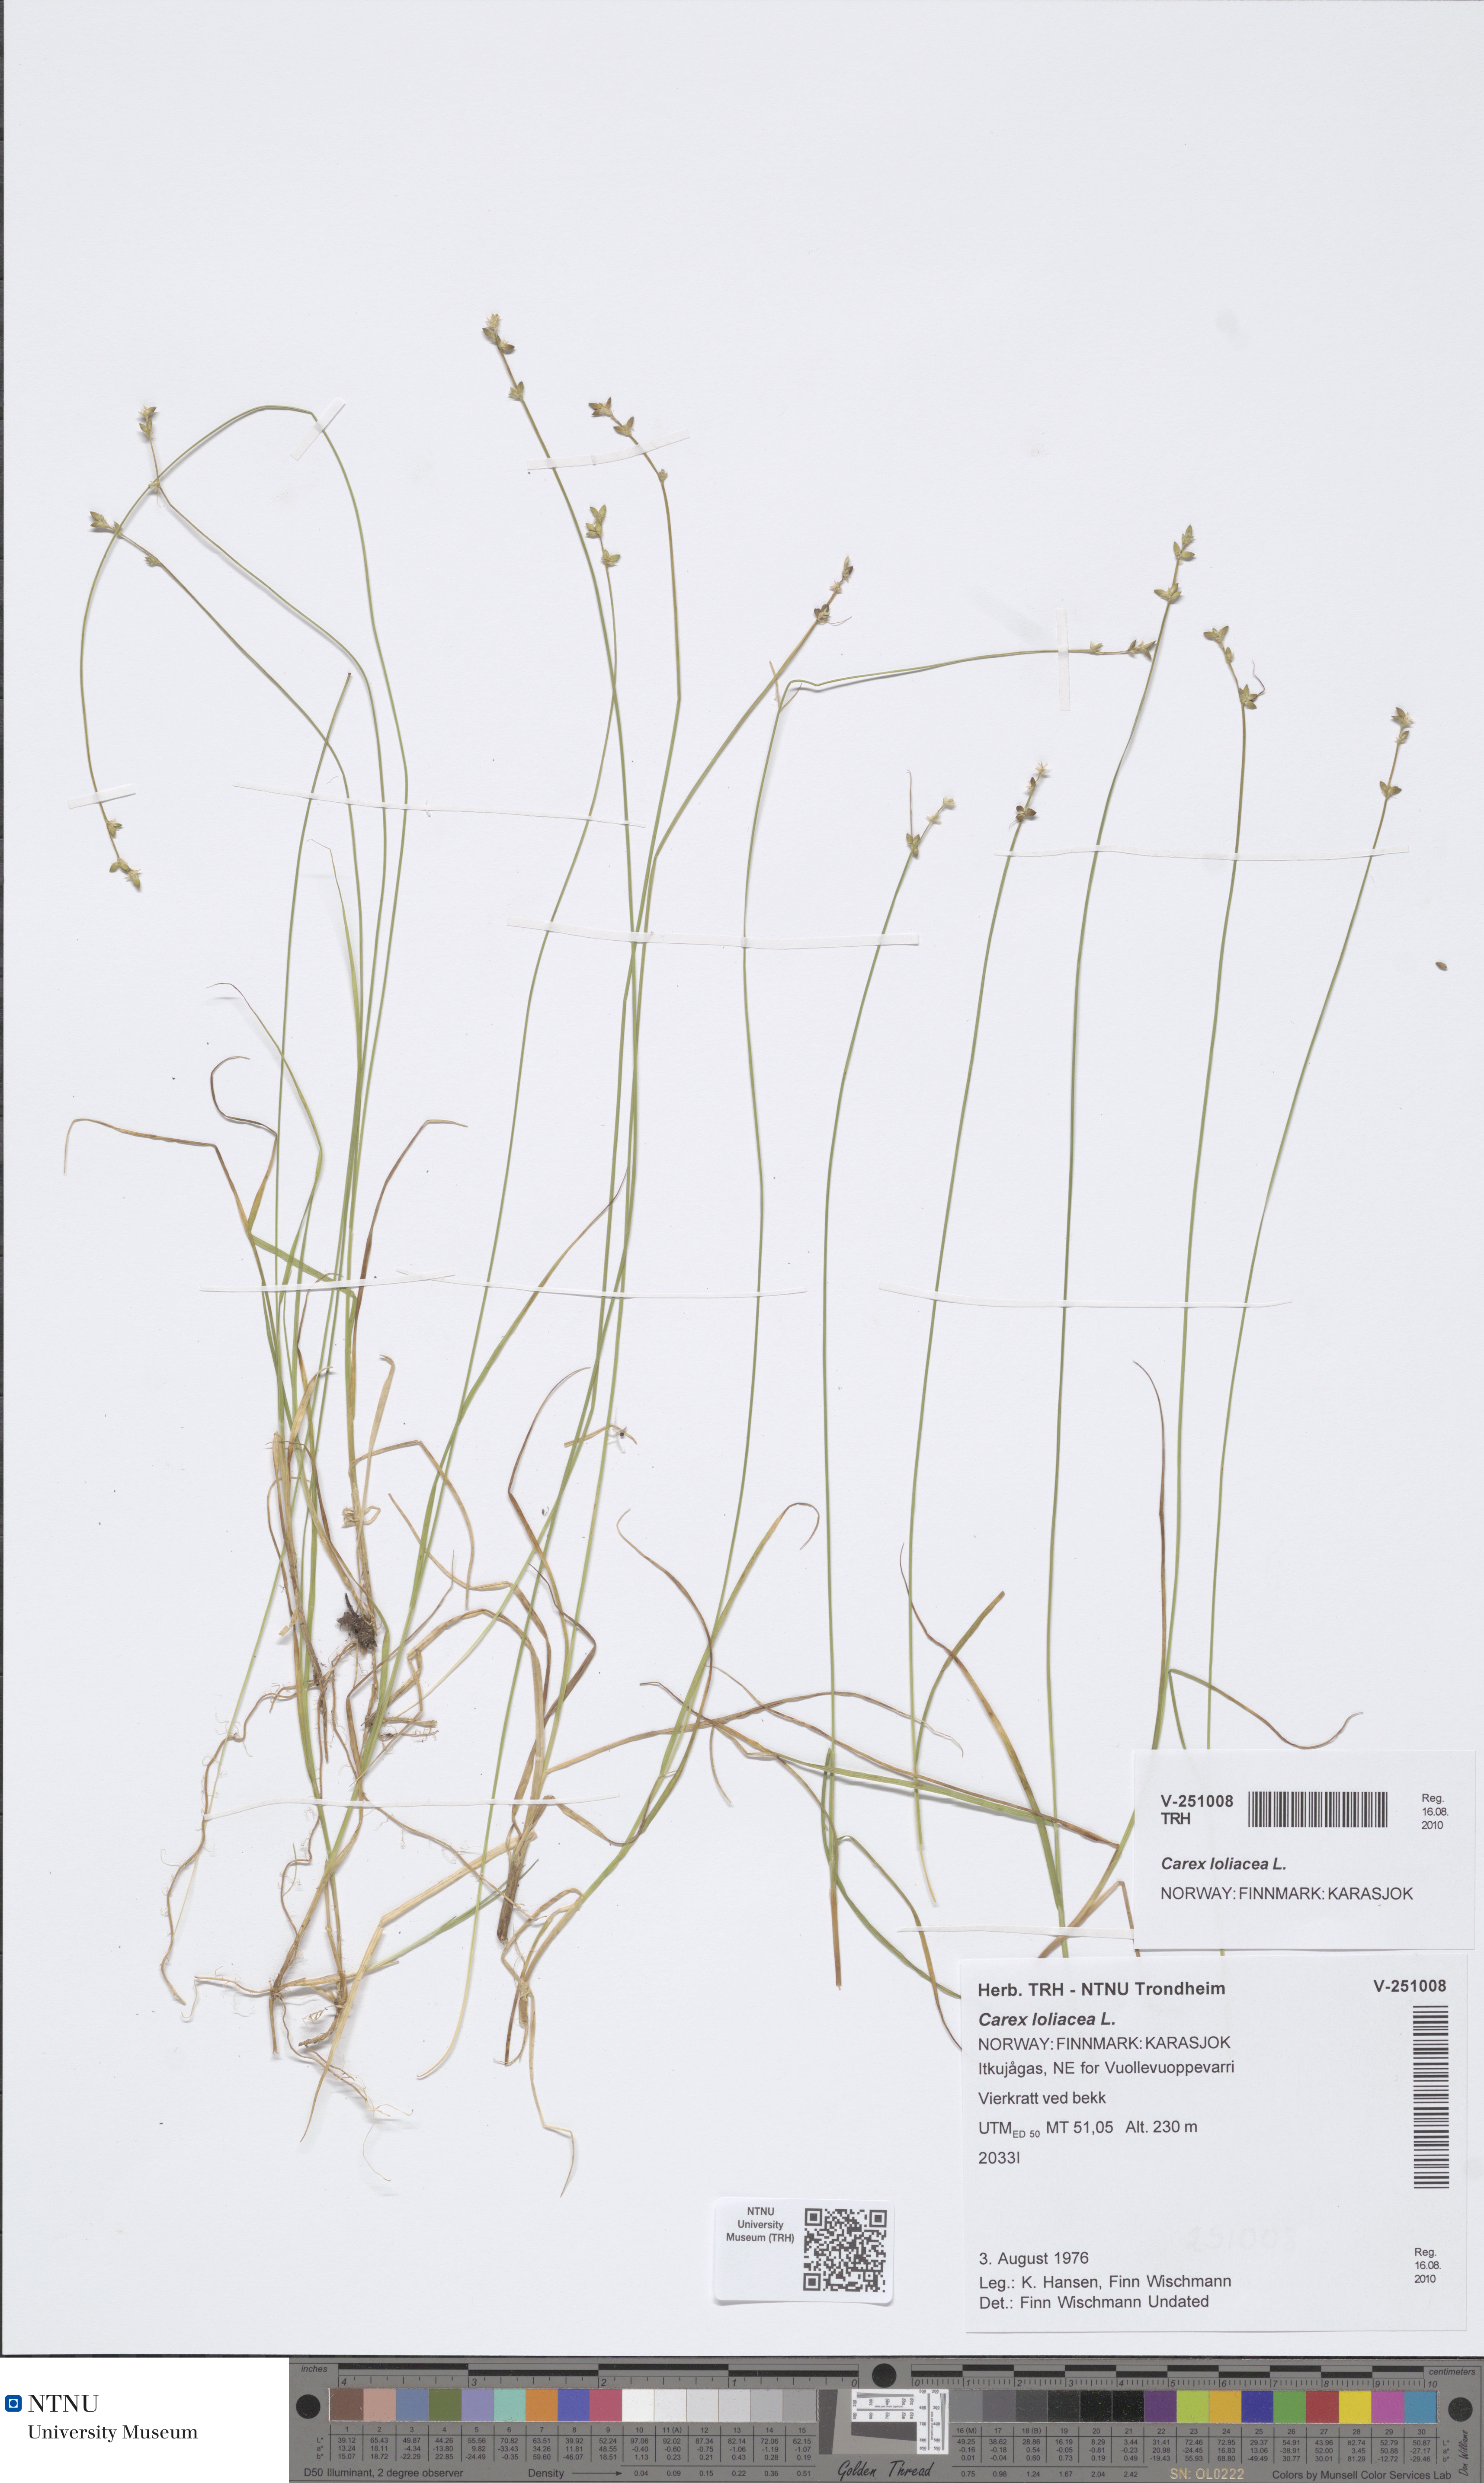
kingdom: Plantae
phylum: Tracheophyta
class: Liliopsida
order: Poales
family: Cyperaceae
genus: Carex
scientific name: Carex loliacea
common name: Ryegrass sedge
